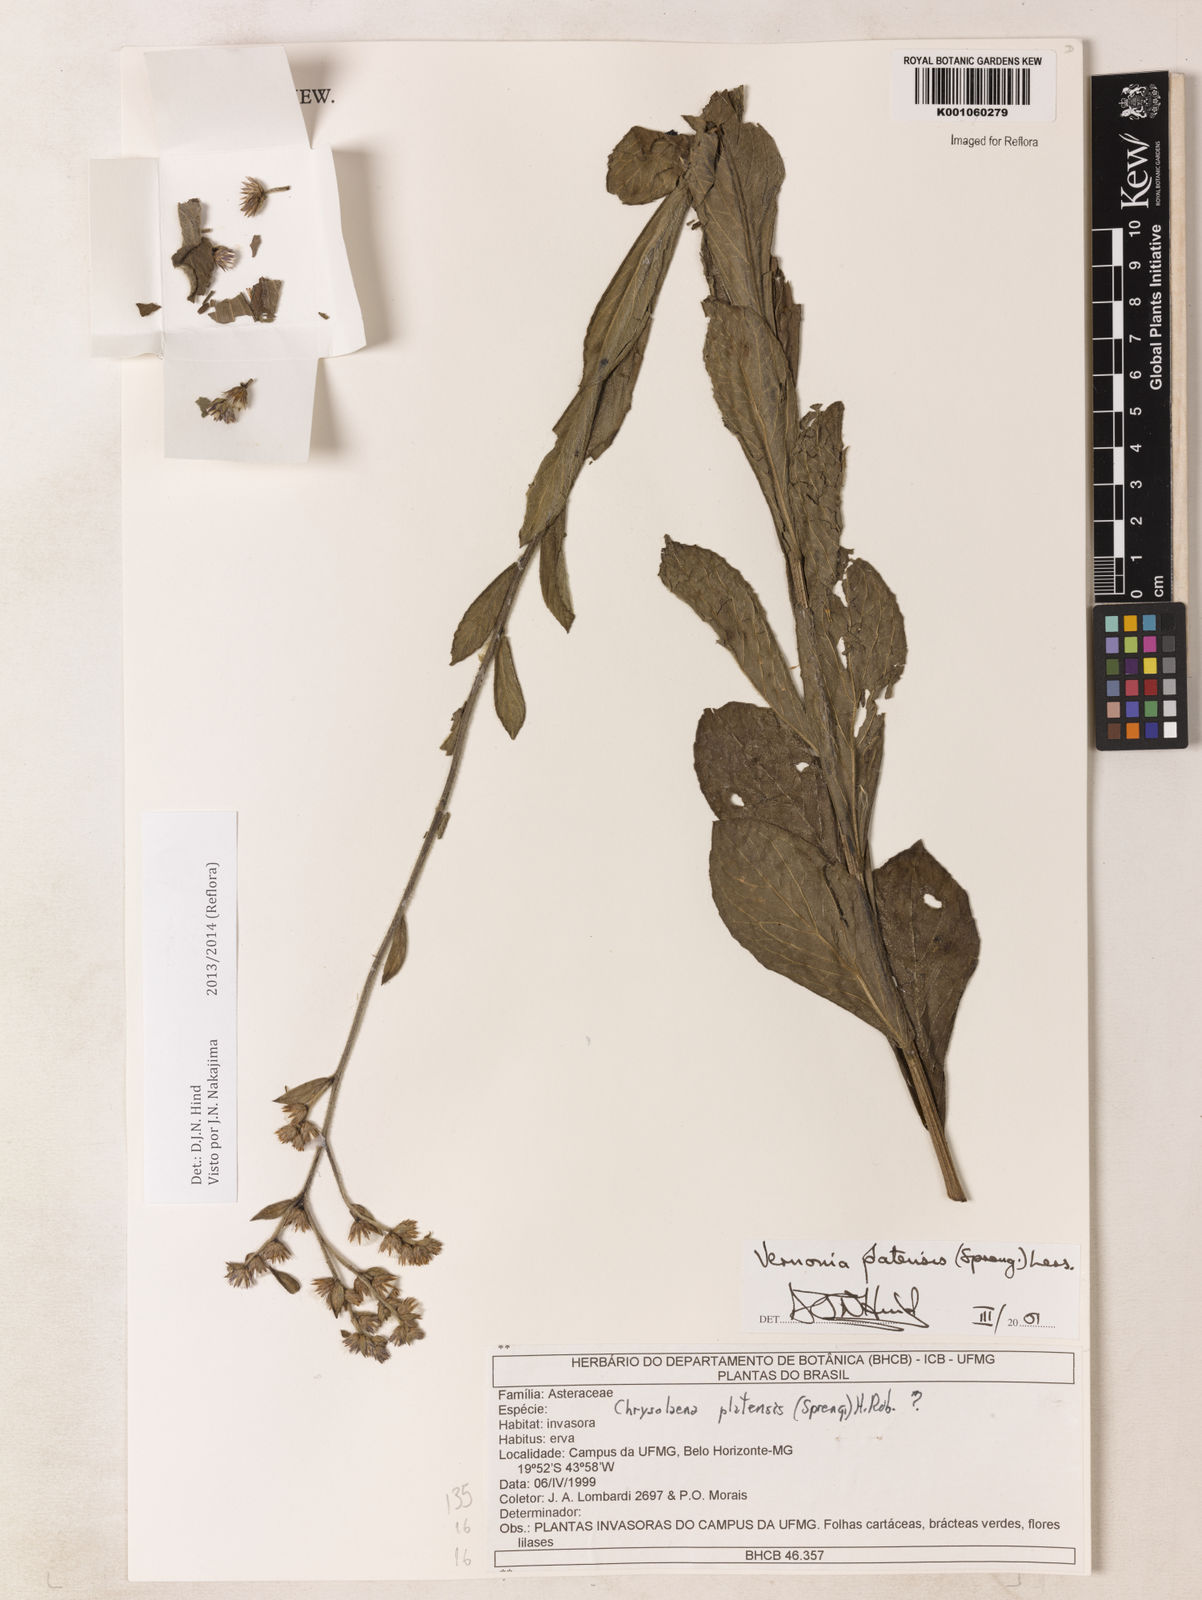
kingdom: Plantae
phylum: Tracheophyta
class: Magnoliopsida
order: Asterales
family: Asteraceae
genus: Chrysolaena
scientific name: Chrysolaena platensis
